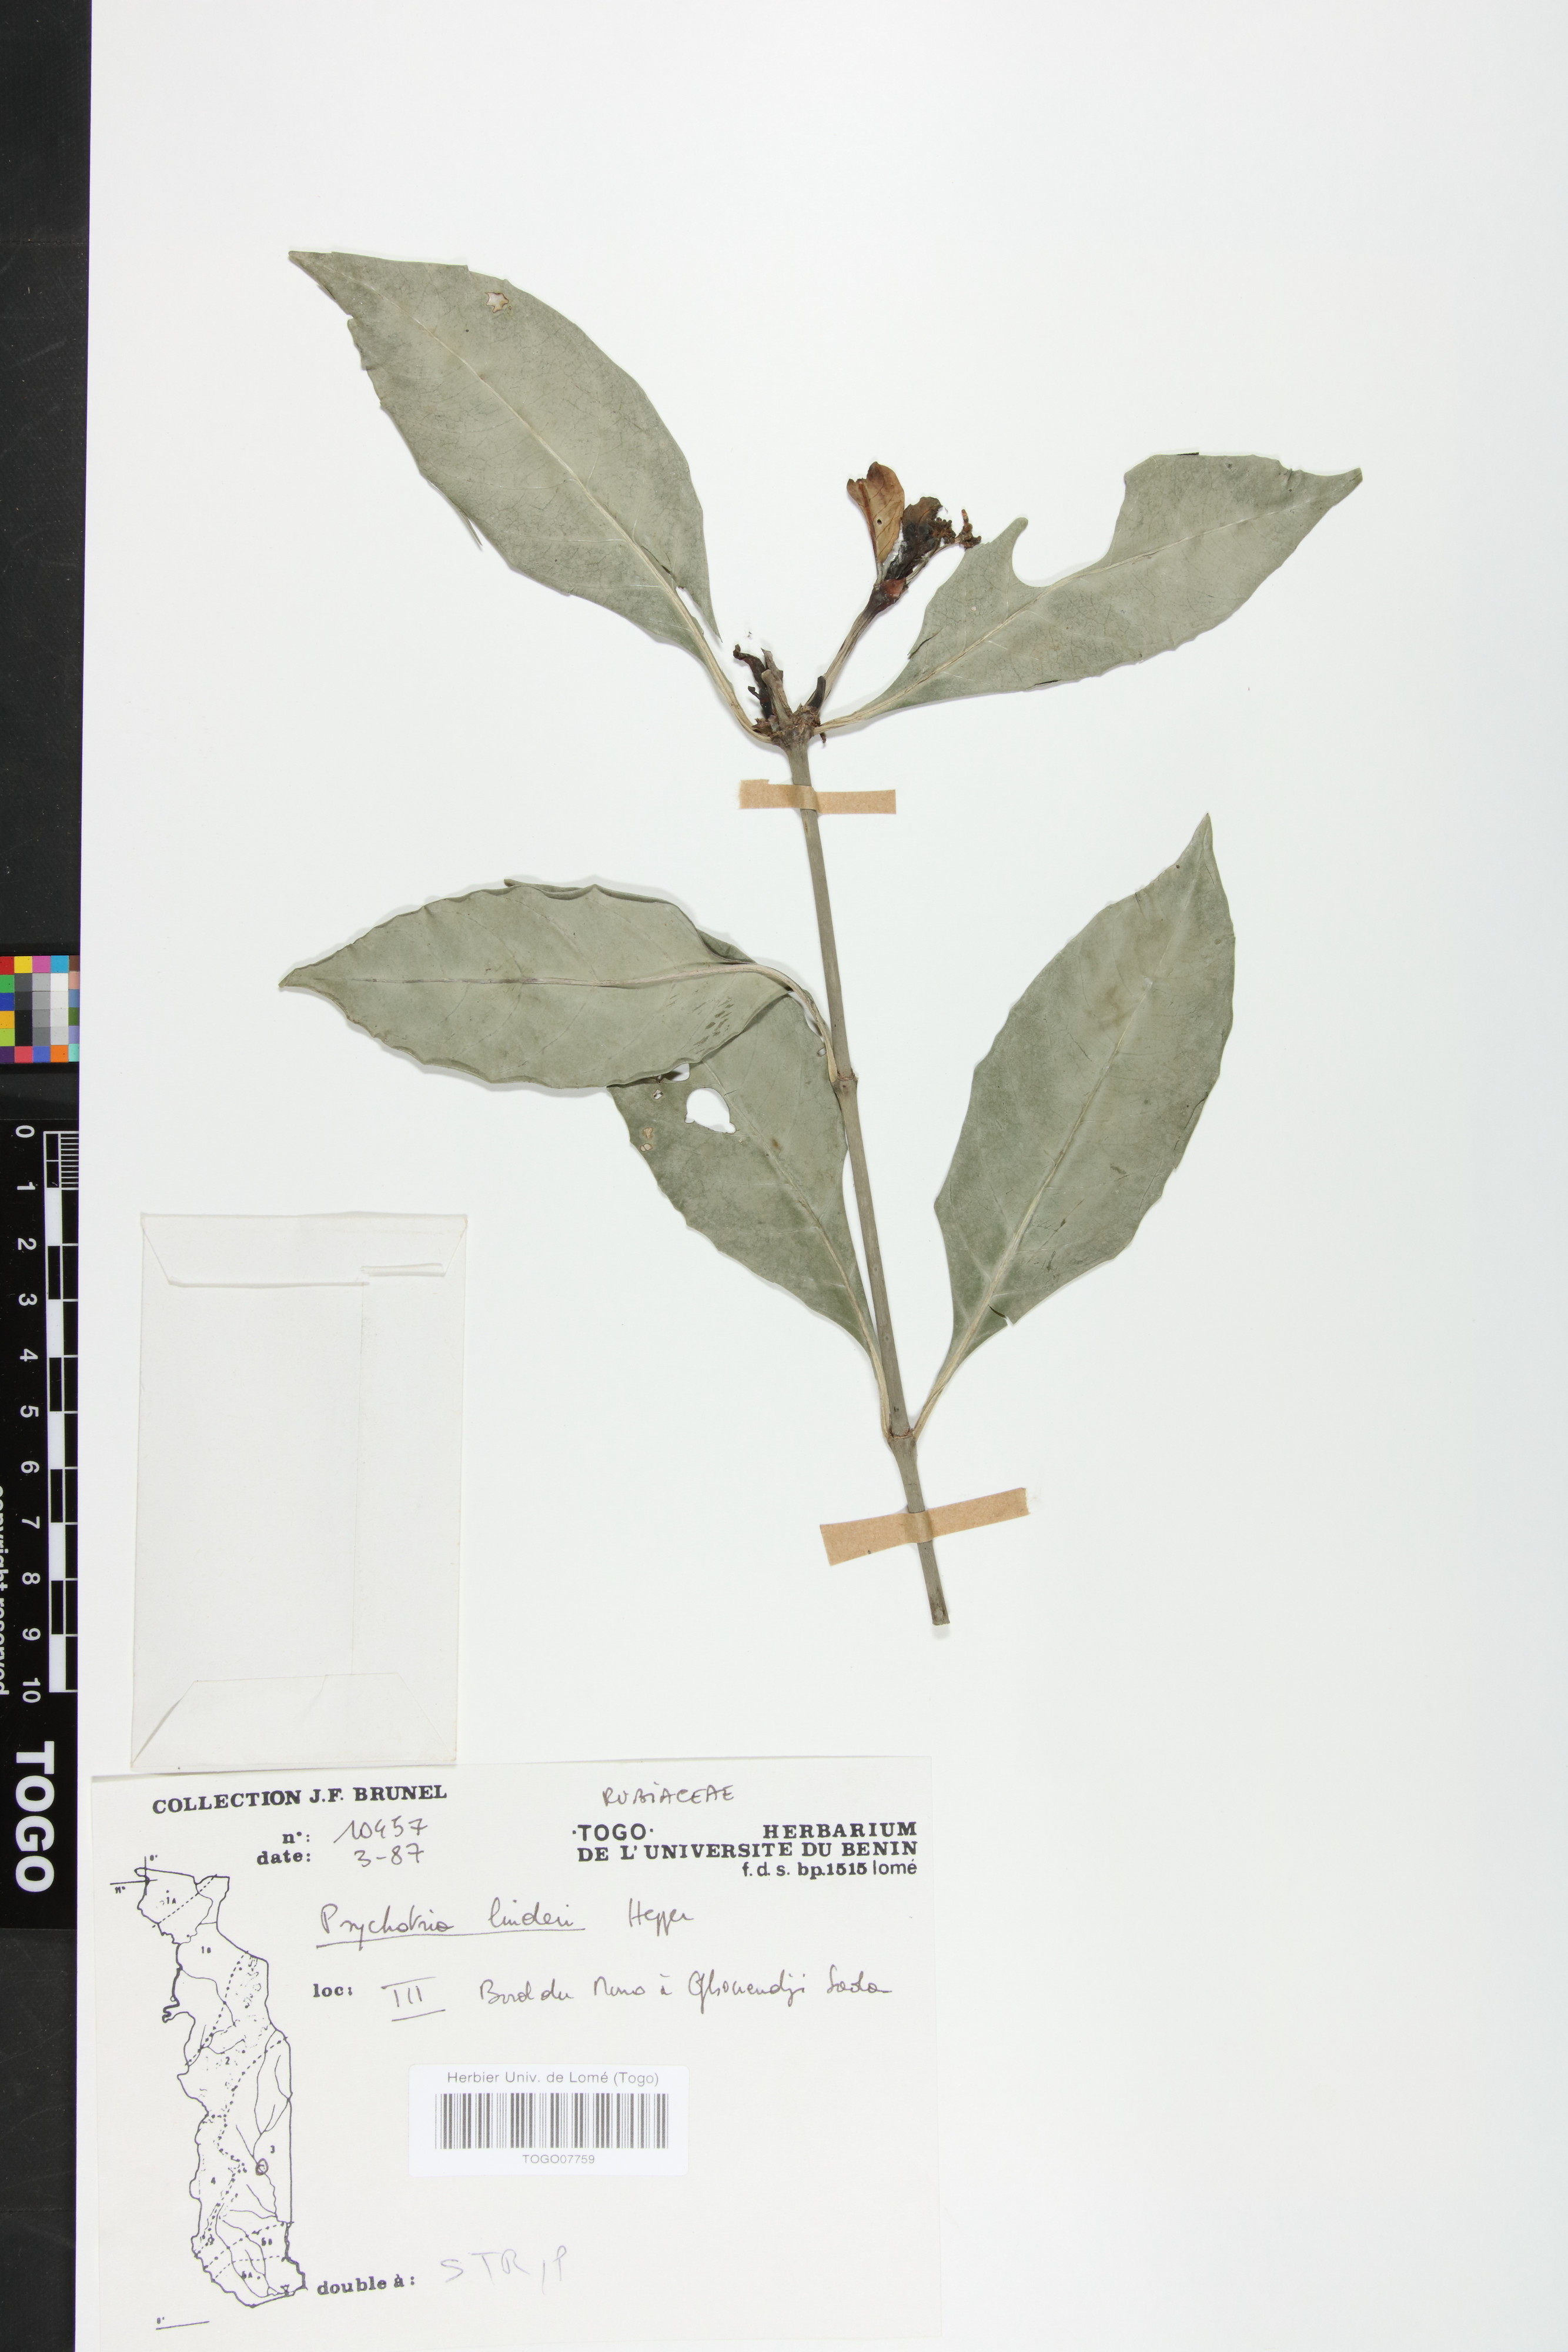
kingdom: Plantae
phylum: Tracheophyta
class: Magnoliopsida
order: Gentianales
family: Rubiaceae
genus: Psychotria
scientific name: Psychotria linderi
